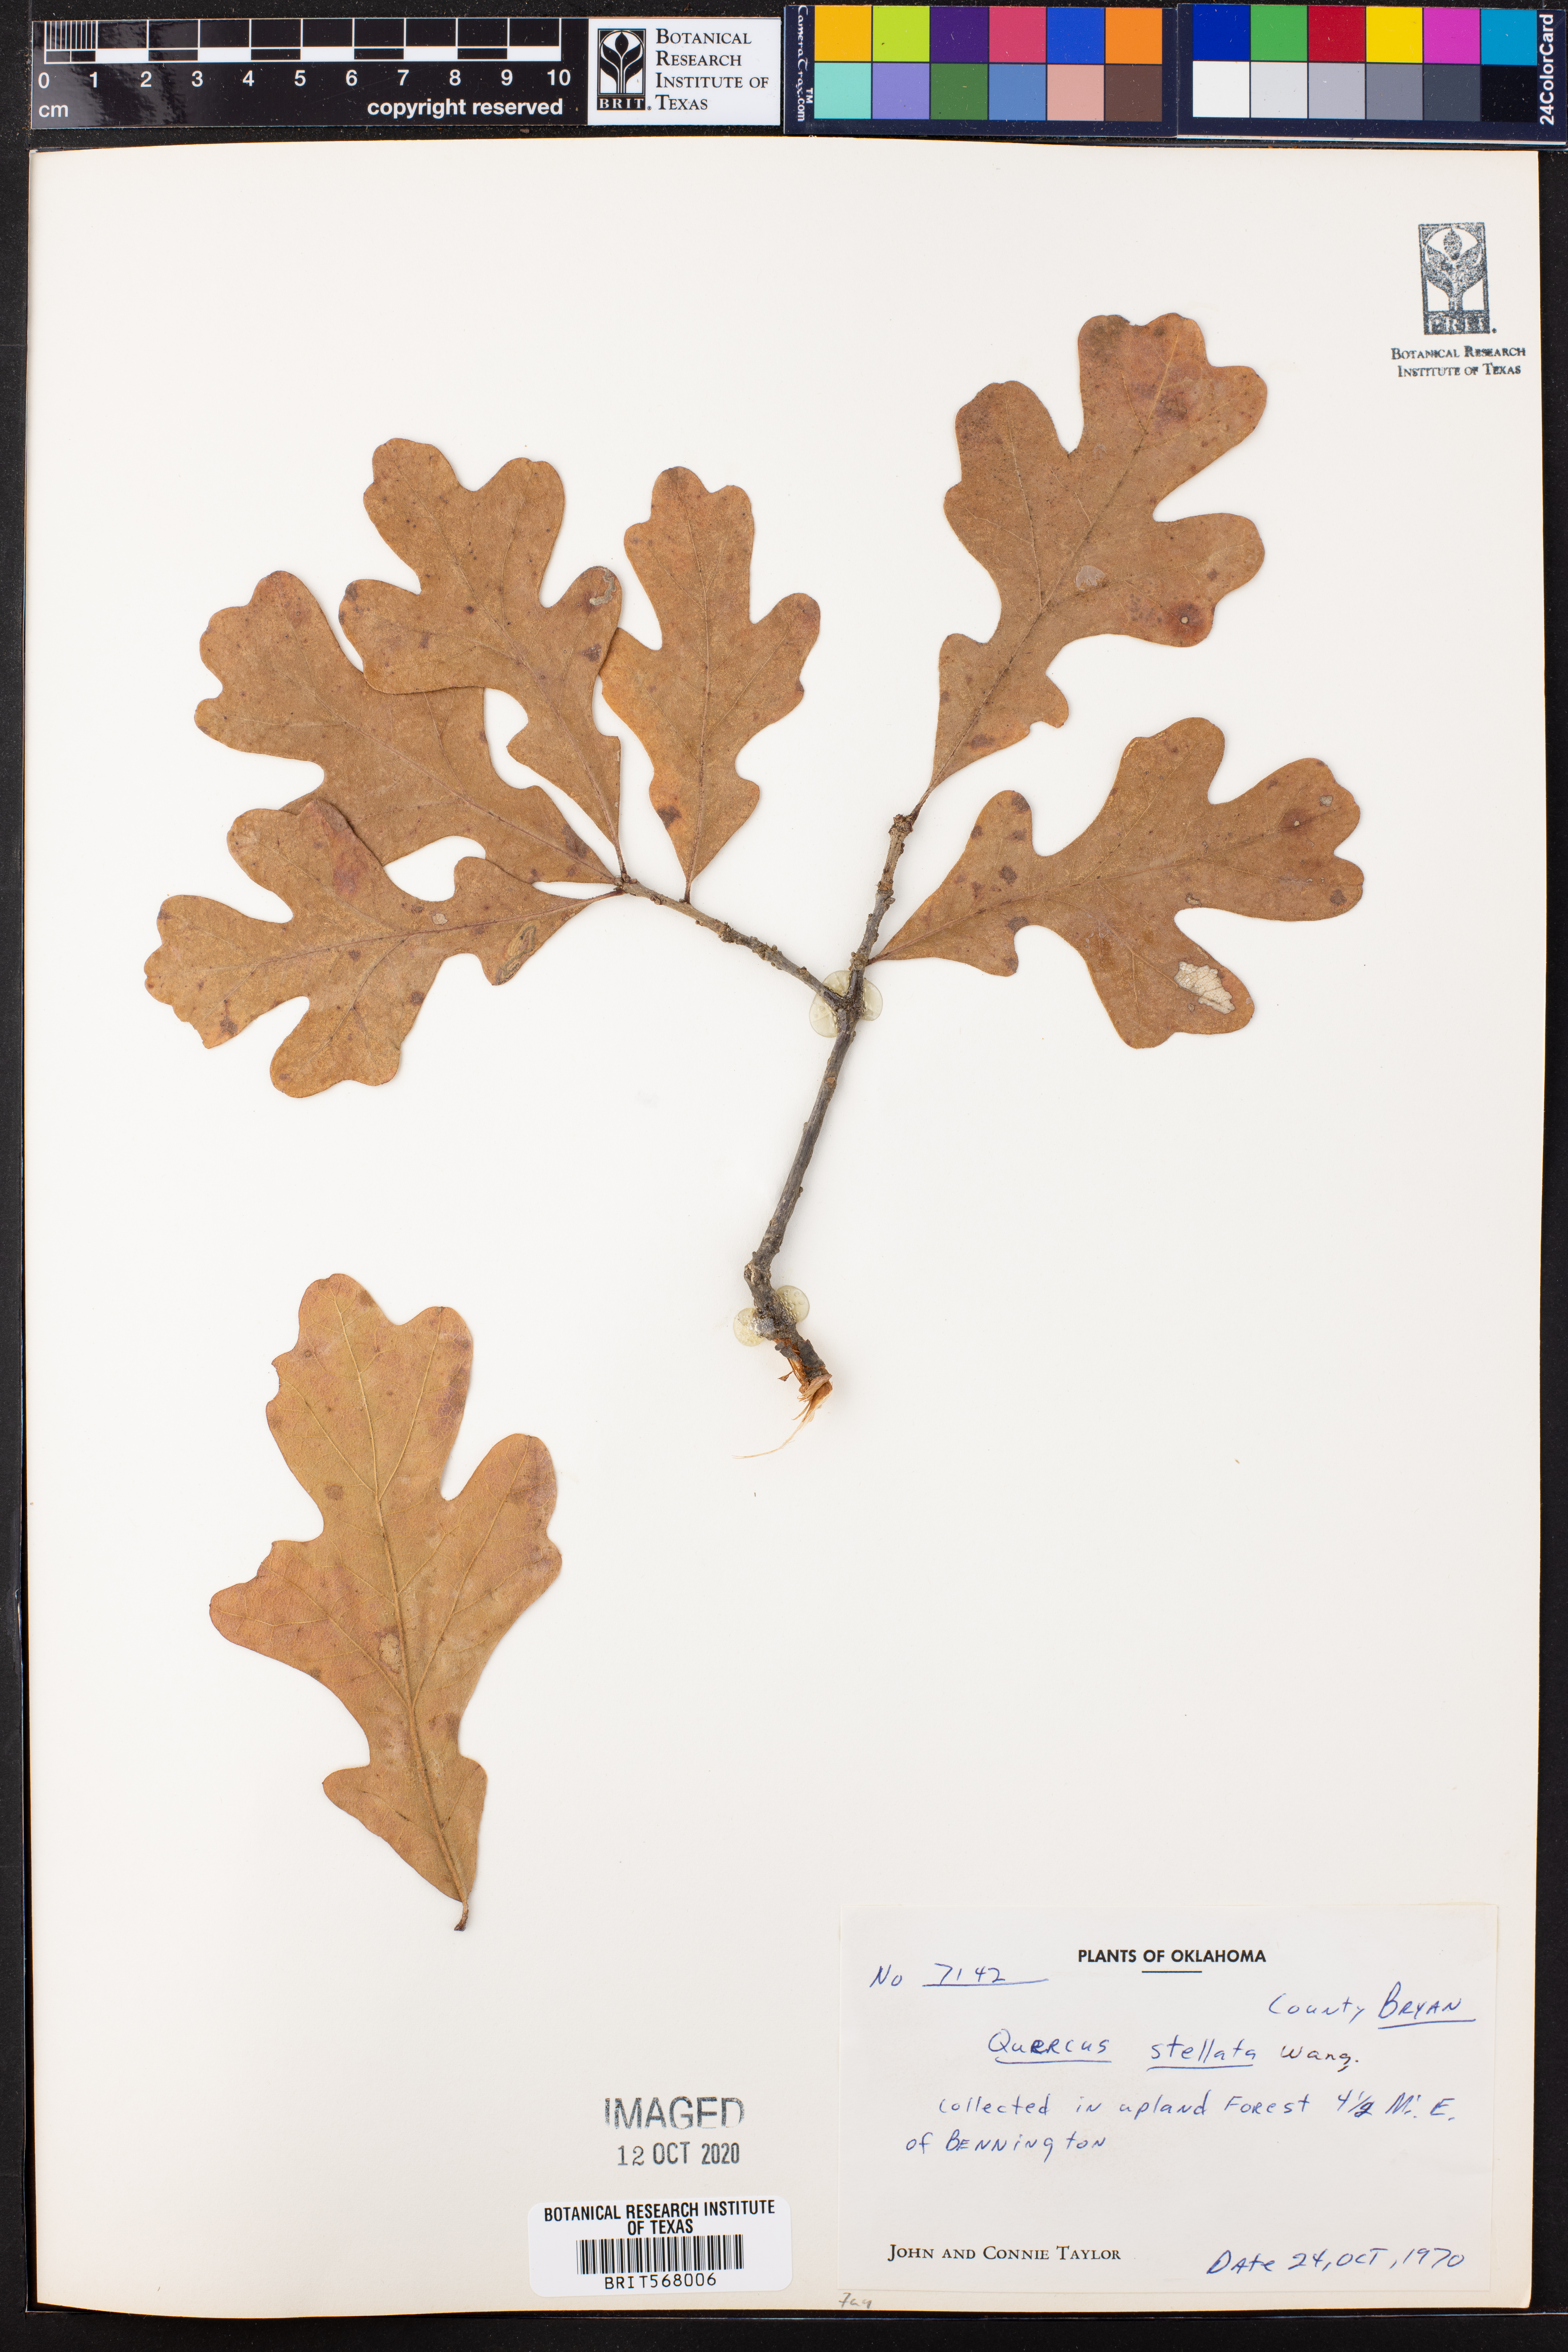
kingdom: Plantae
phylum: Tracheophyta
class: Magnoliopsida
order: Fagales
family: Fagaceae
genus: Quercus
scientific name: Quercus stellata
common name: Post oak
